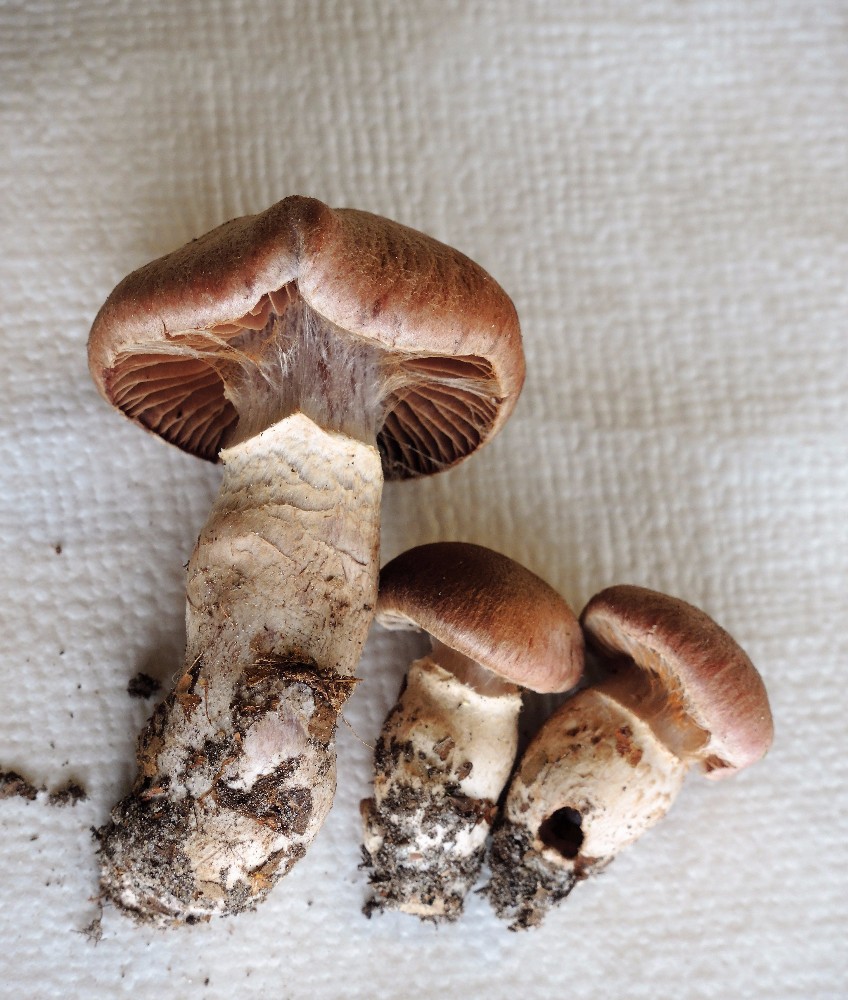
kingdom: Fungi
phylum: Basidiomycota
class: Agaricomycetes
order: Agaricales
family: Cortinariaceae
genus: Cortinarius
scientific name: Cortinarius torvus
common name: champignonagtig slørhat
